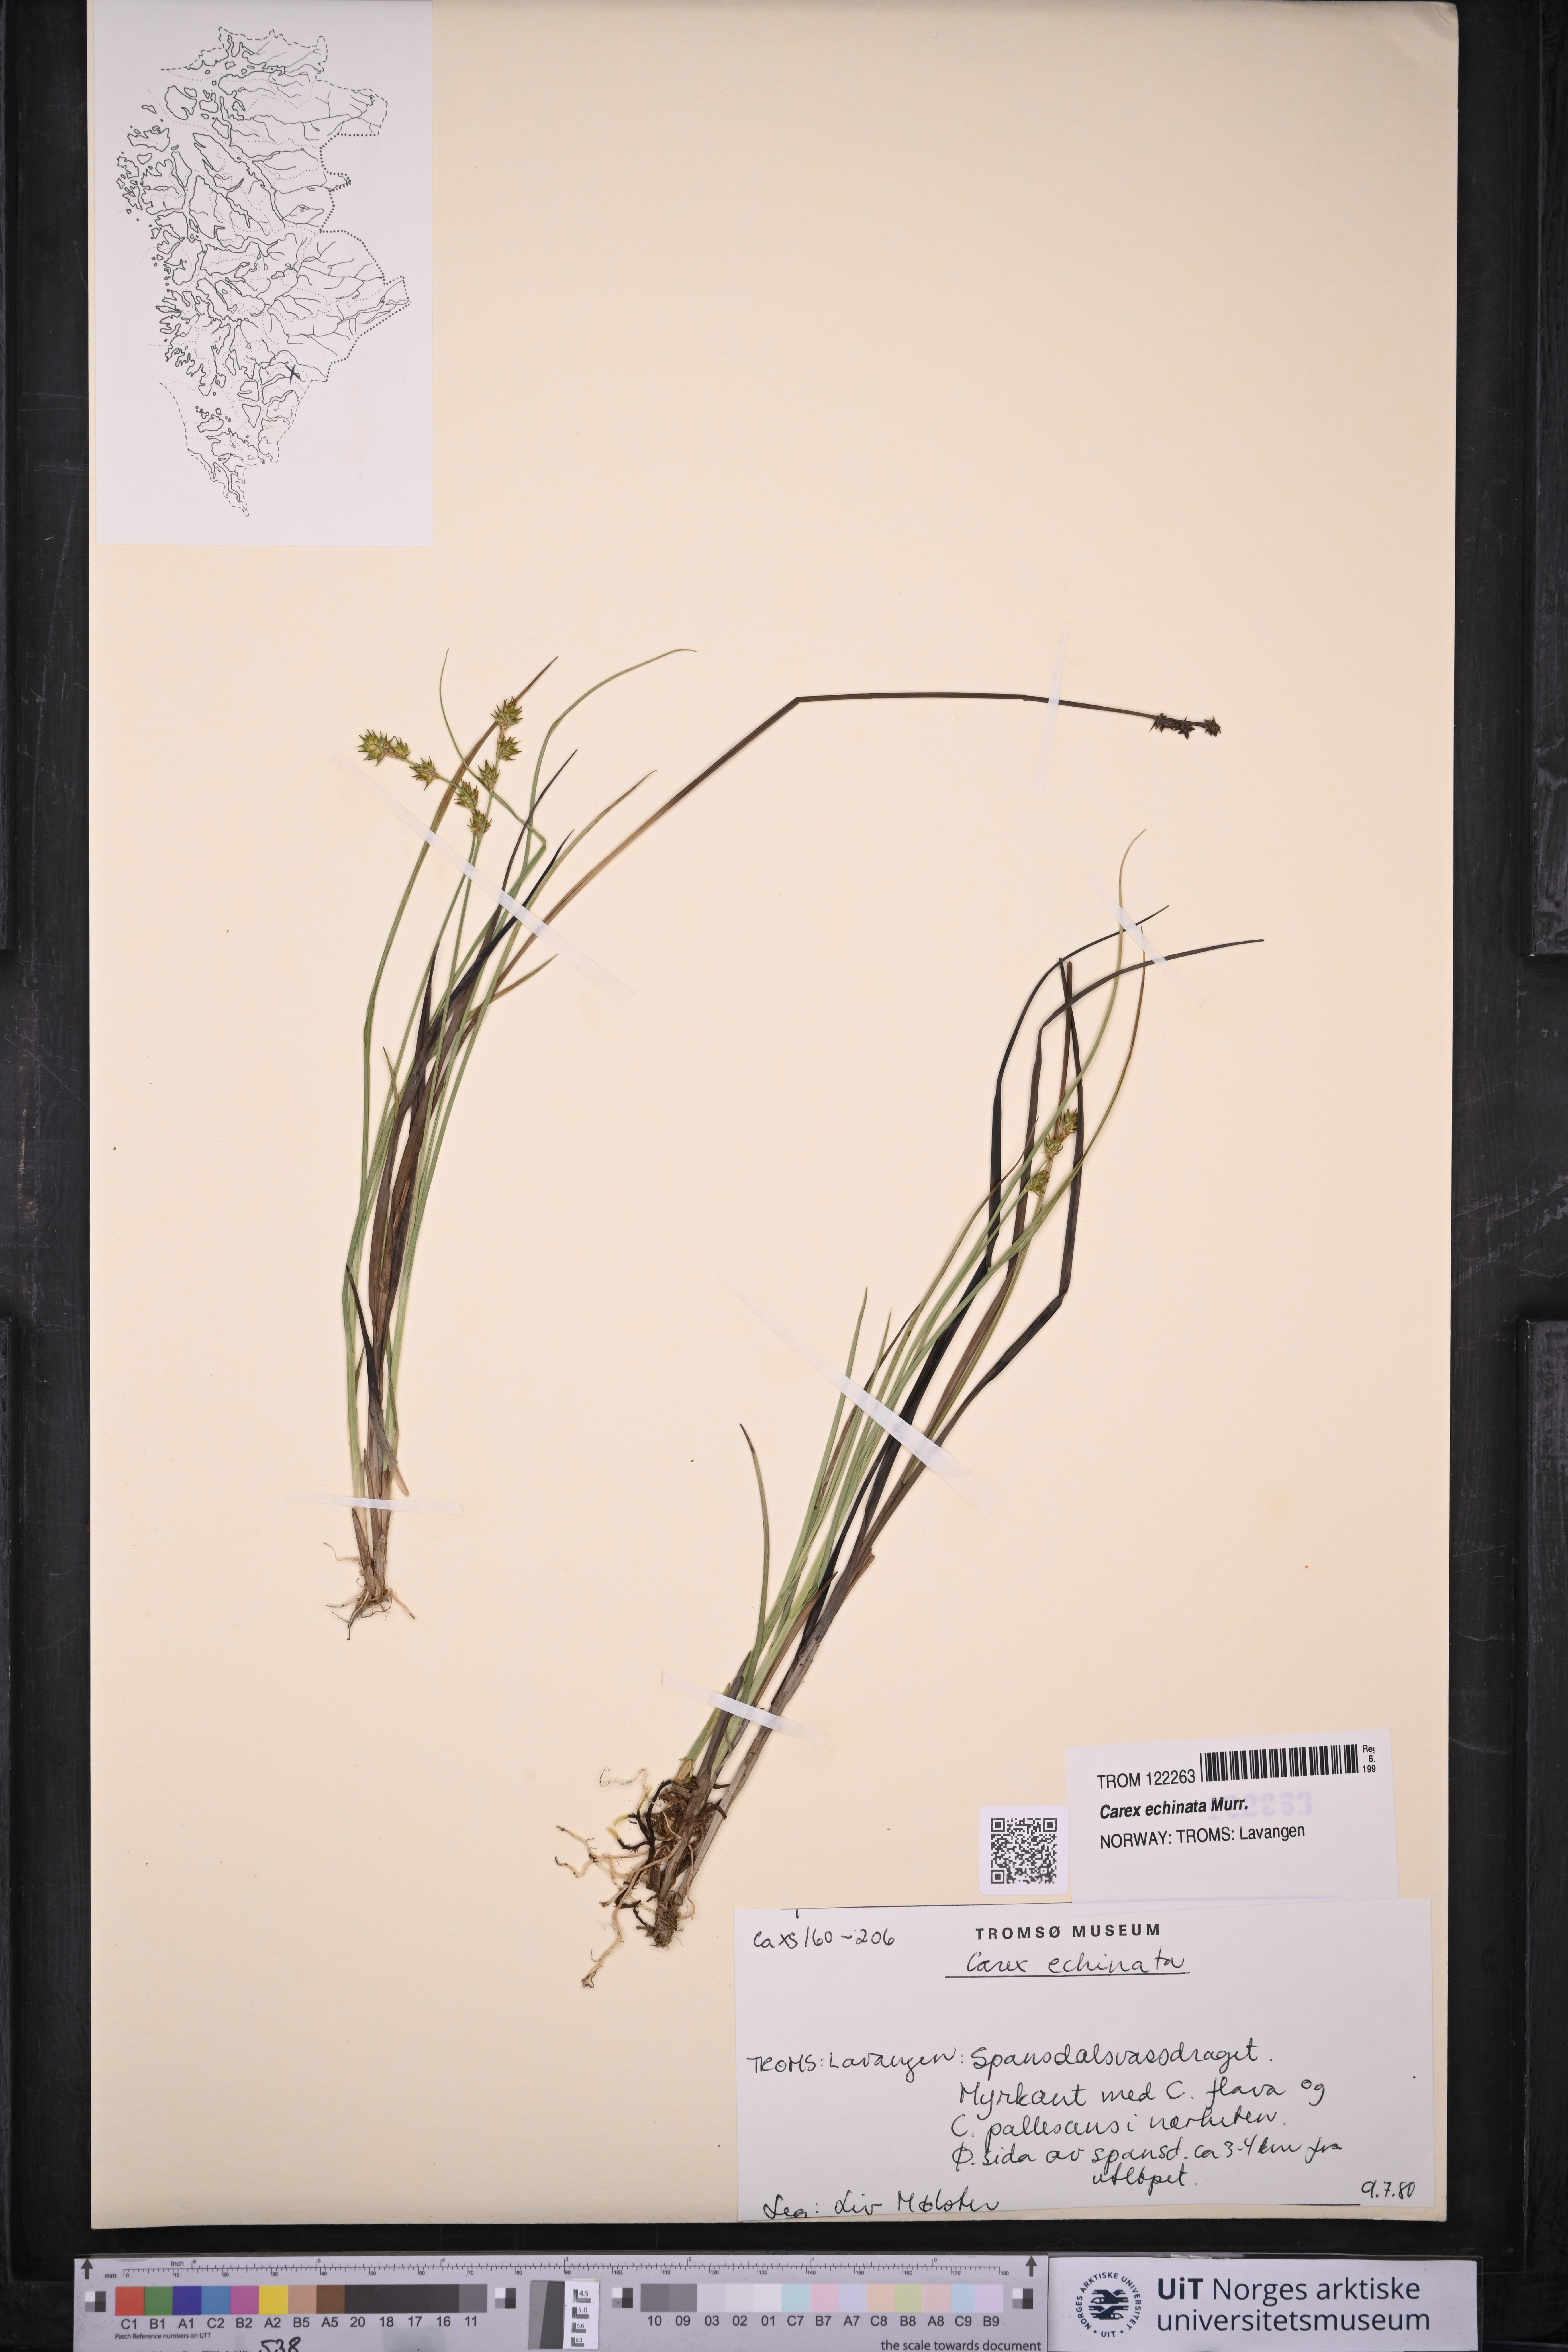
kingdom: Plantae
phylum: Tracheophyta
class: Liliopsida
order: Poales
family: Cyperaceae
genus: Carex
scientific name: Carex echinata
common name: Star sedge
